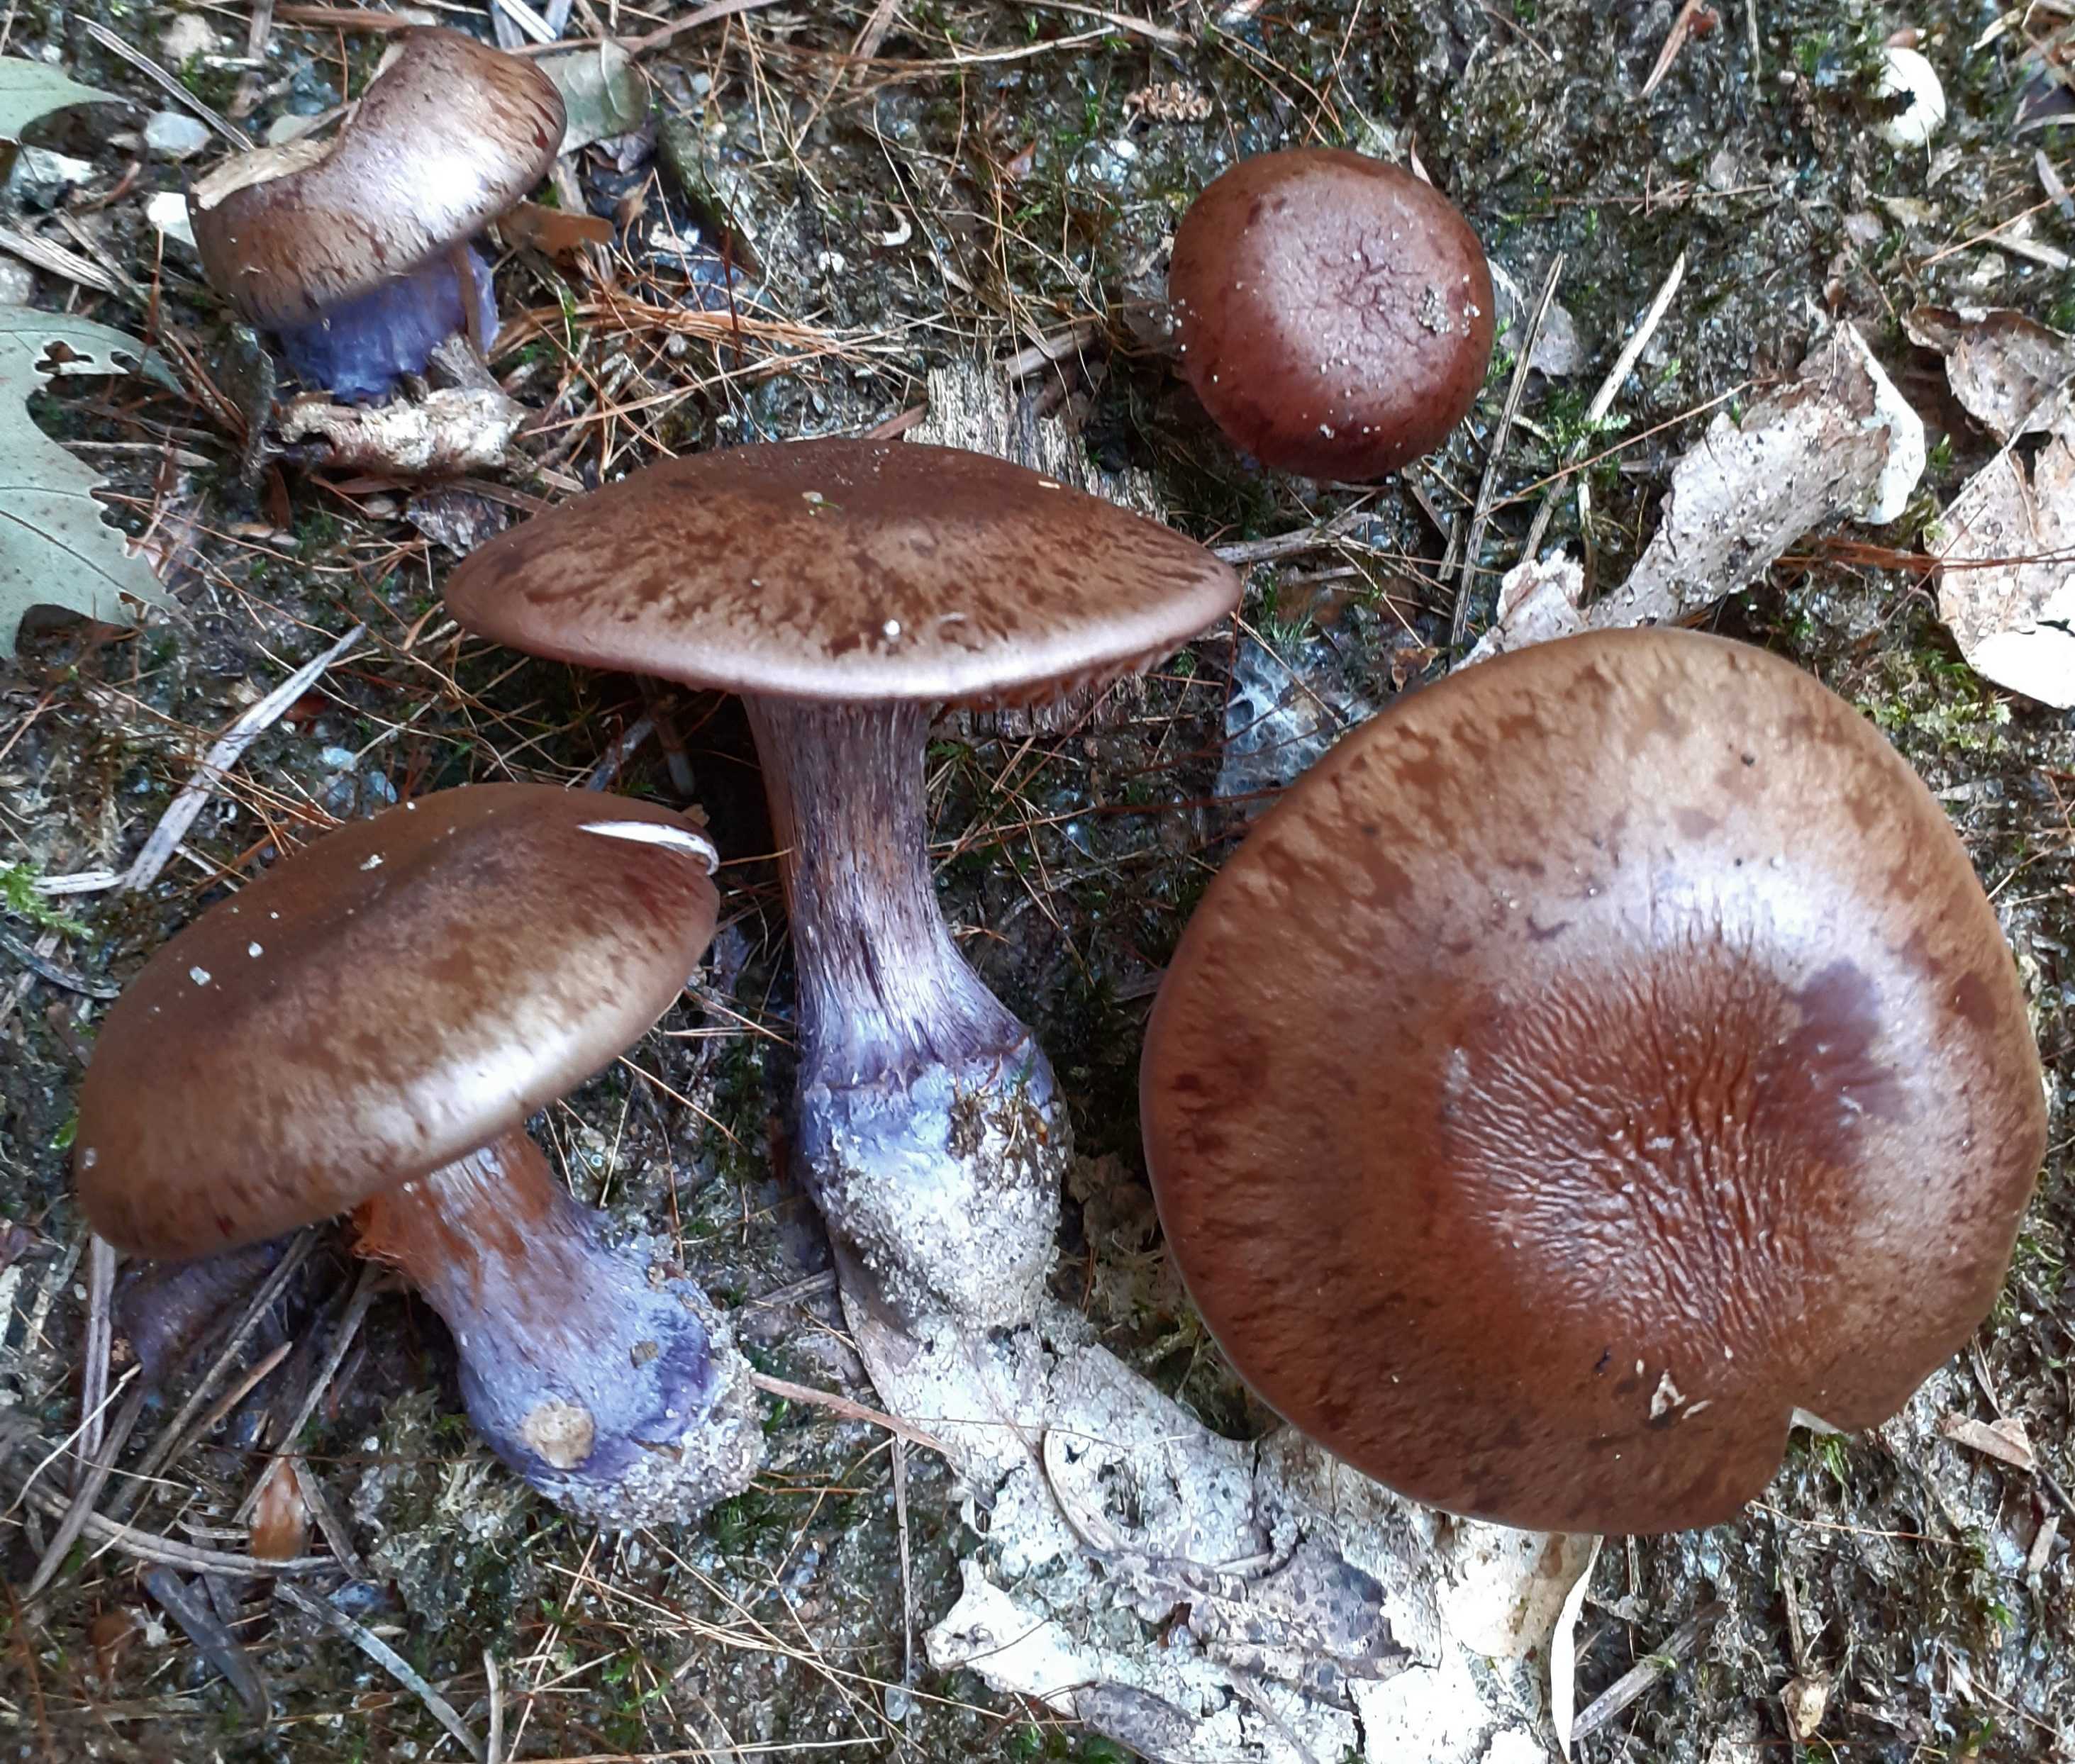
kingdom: Fungi
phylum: Basidiomycota
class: Agaricomycetes
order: Agaricales
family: Cortinariaceae
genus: Thaxterogaster
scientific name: Thaxterogaster purpurascens
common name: purpurbrun slørhat
